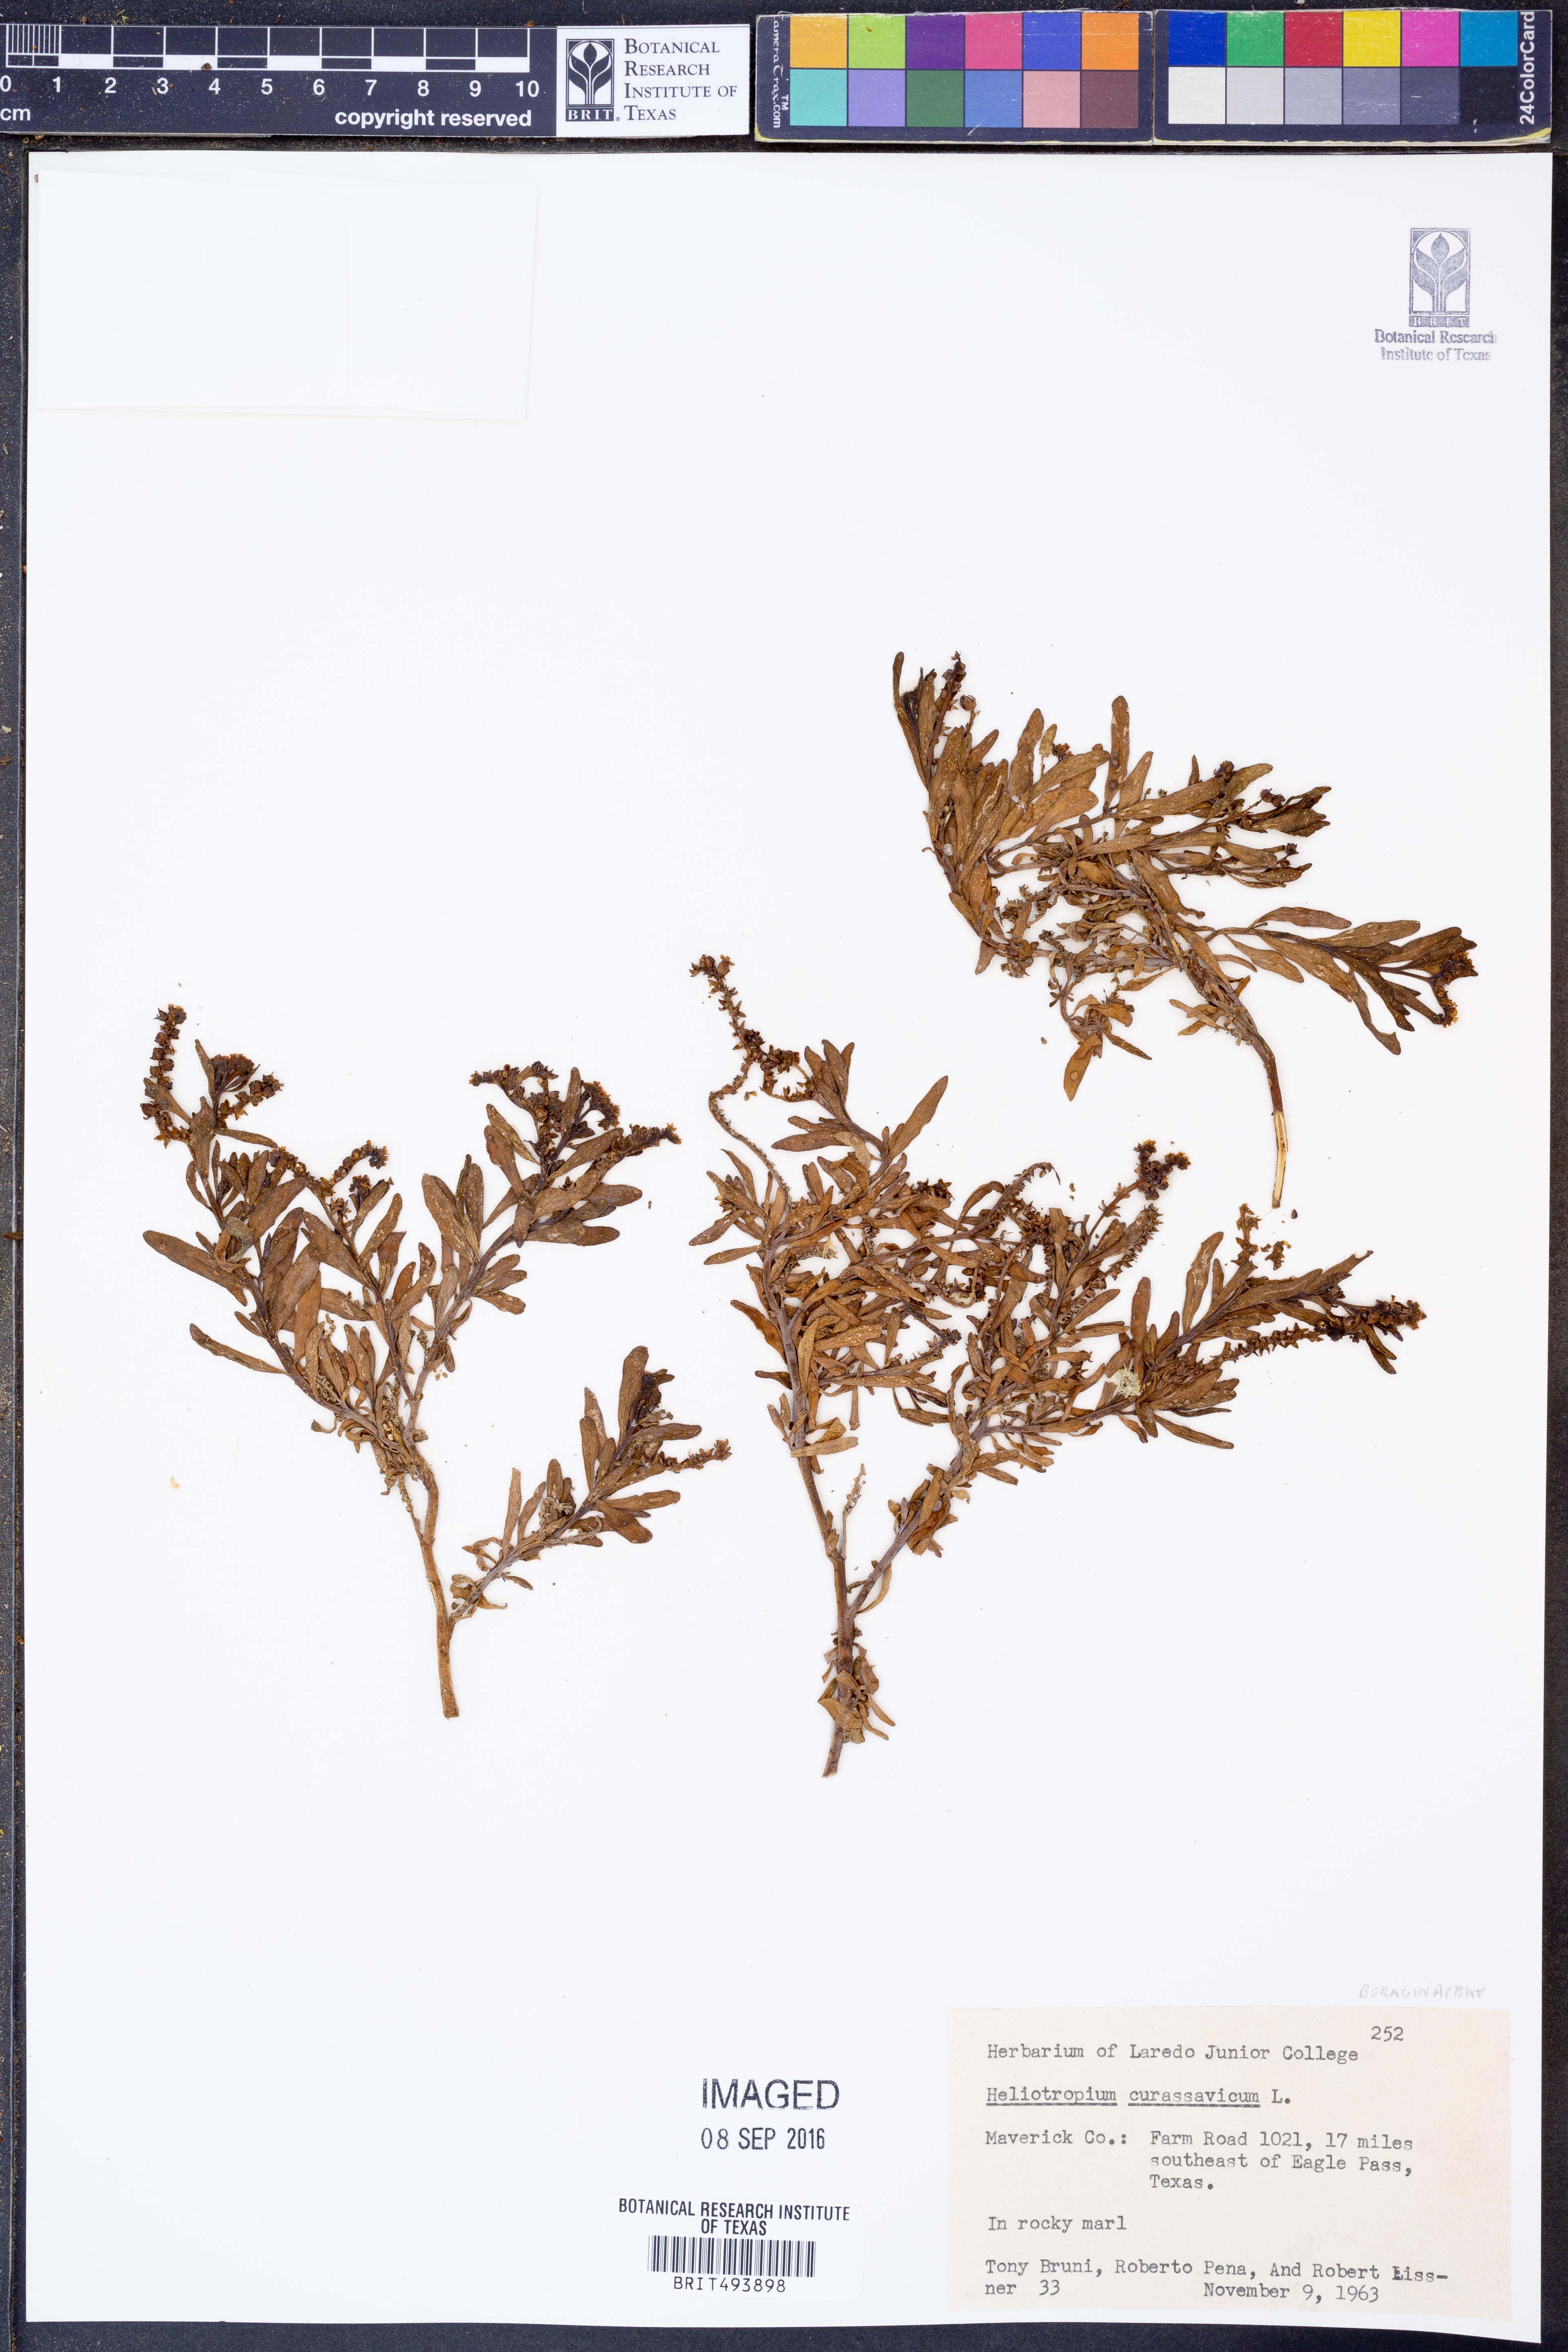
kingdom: Plantae
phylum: Tracheophyta
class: Magnoliopsida
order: Boraginales
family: Heliotropiaceae
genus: Heliotropium
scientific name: Heliotropium curassavicum
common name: Seaside heliotrope
